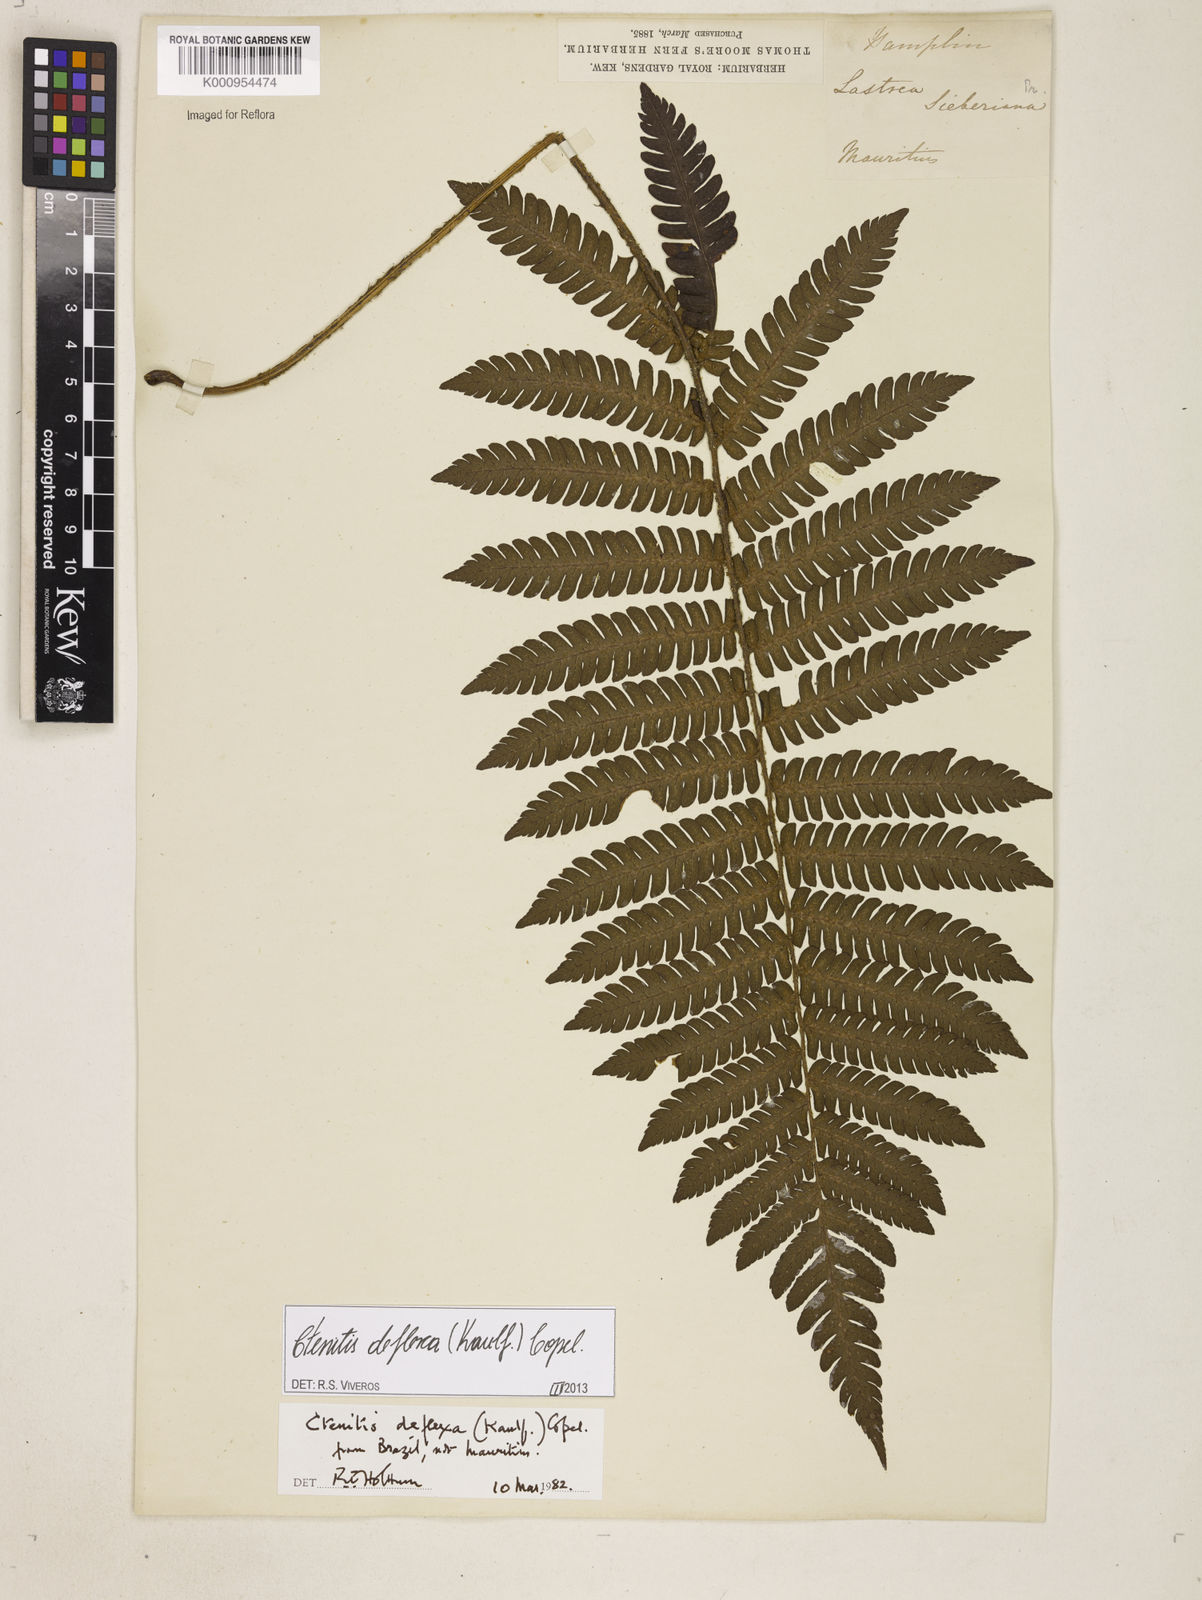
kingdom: Plantae
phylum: Tracheophyta
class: Polypodiopsida
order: Polypodiales
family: Dryopteridaceae
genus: Ctenitis
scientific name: Ctenitis deflexa
